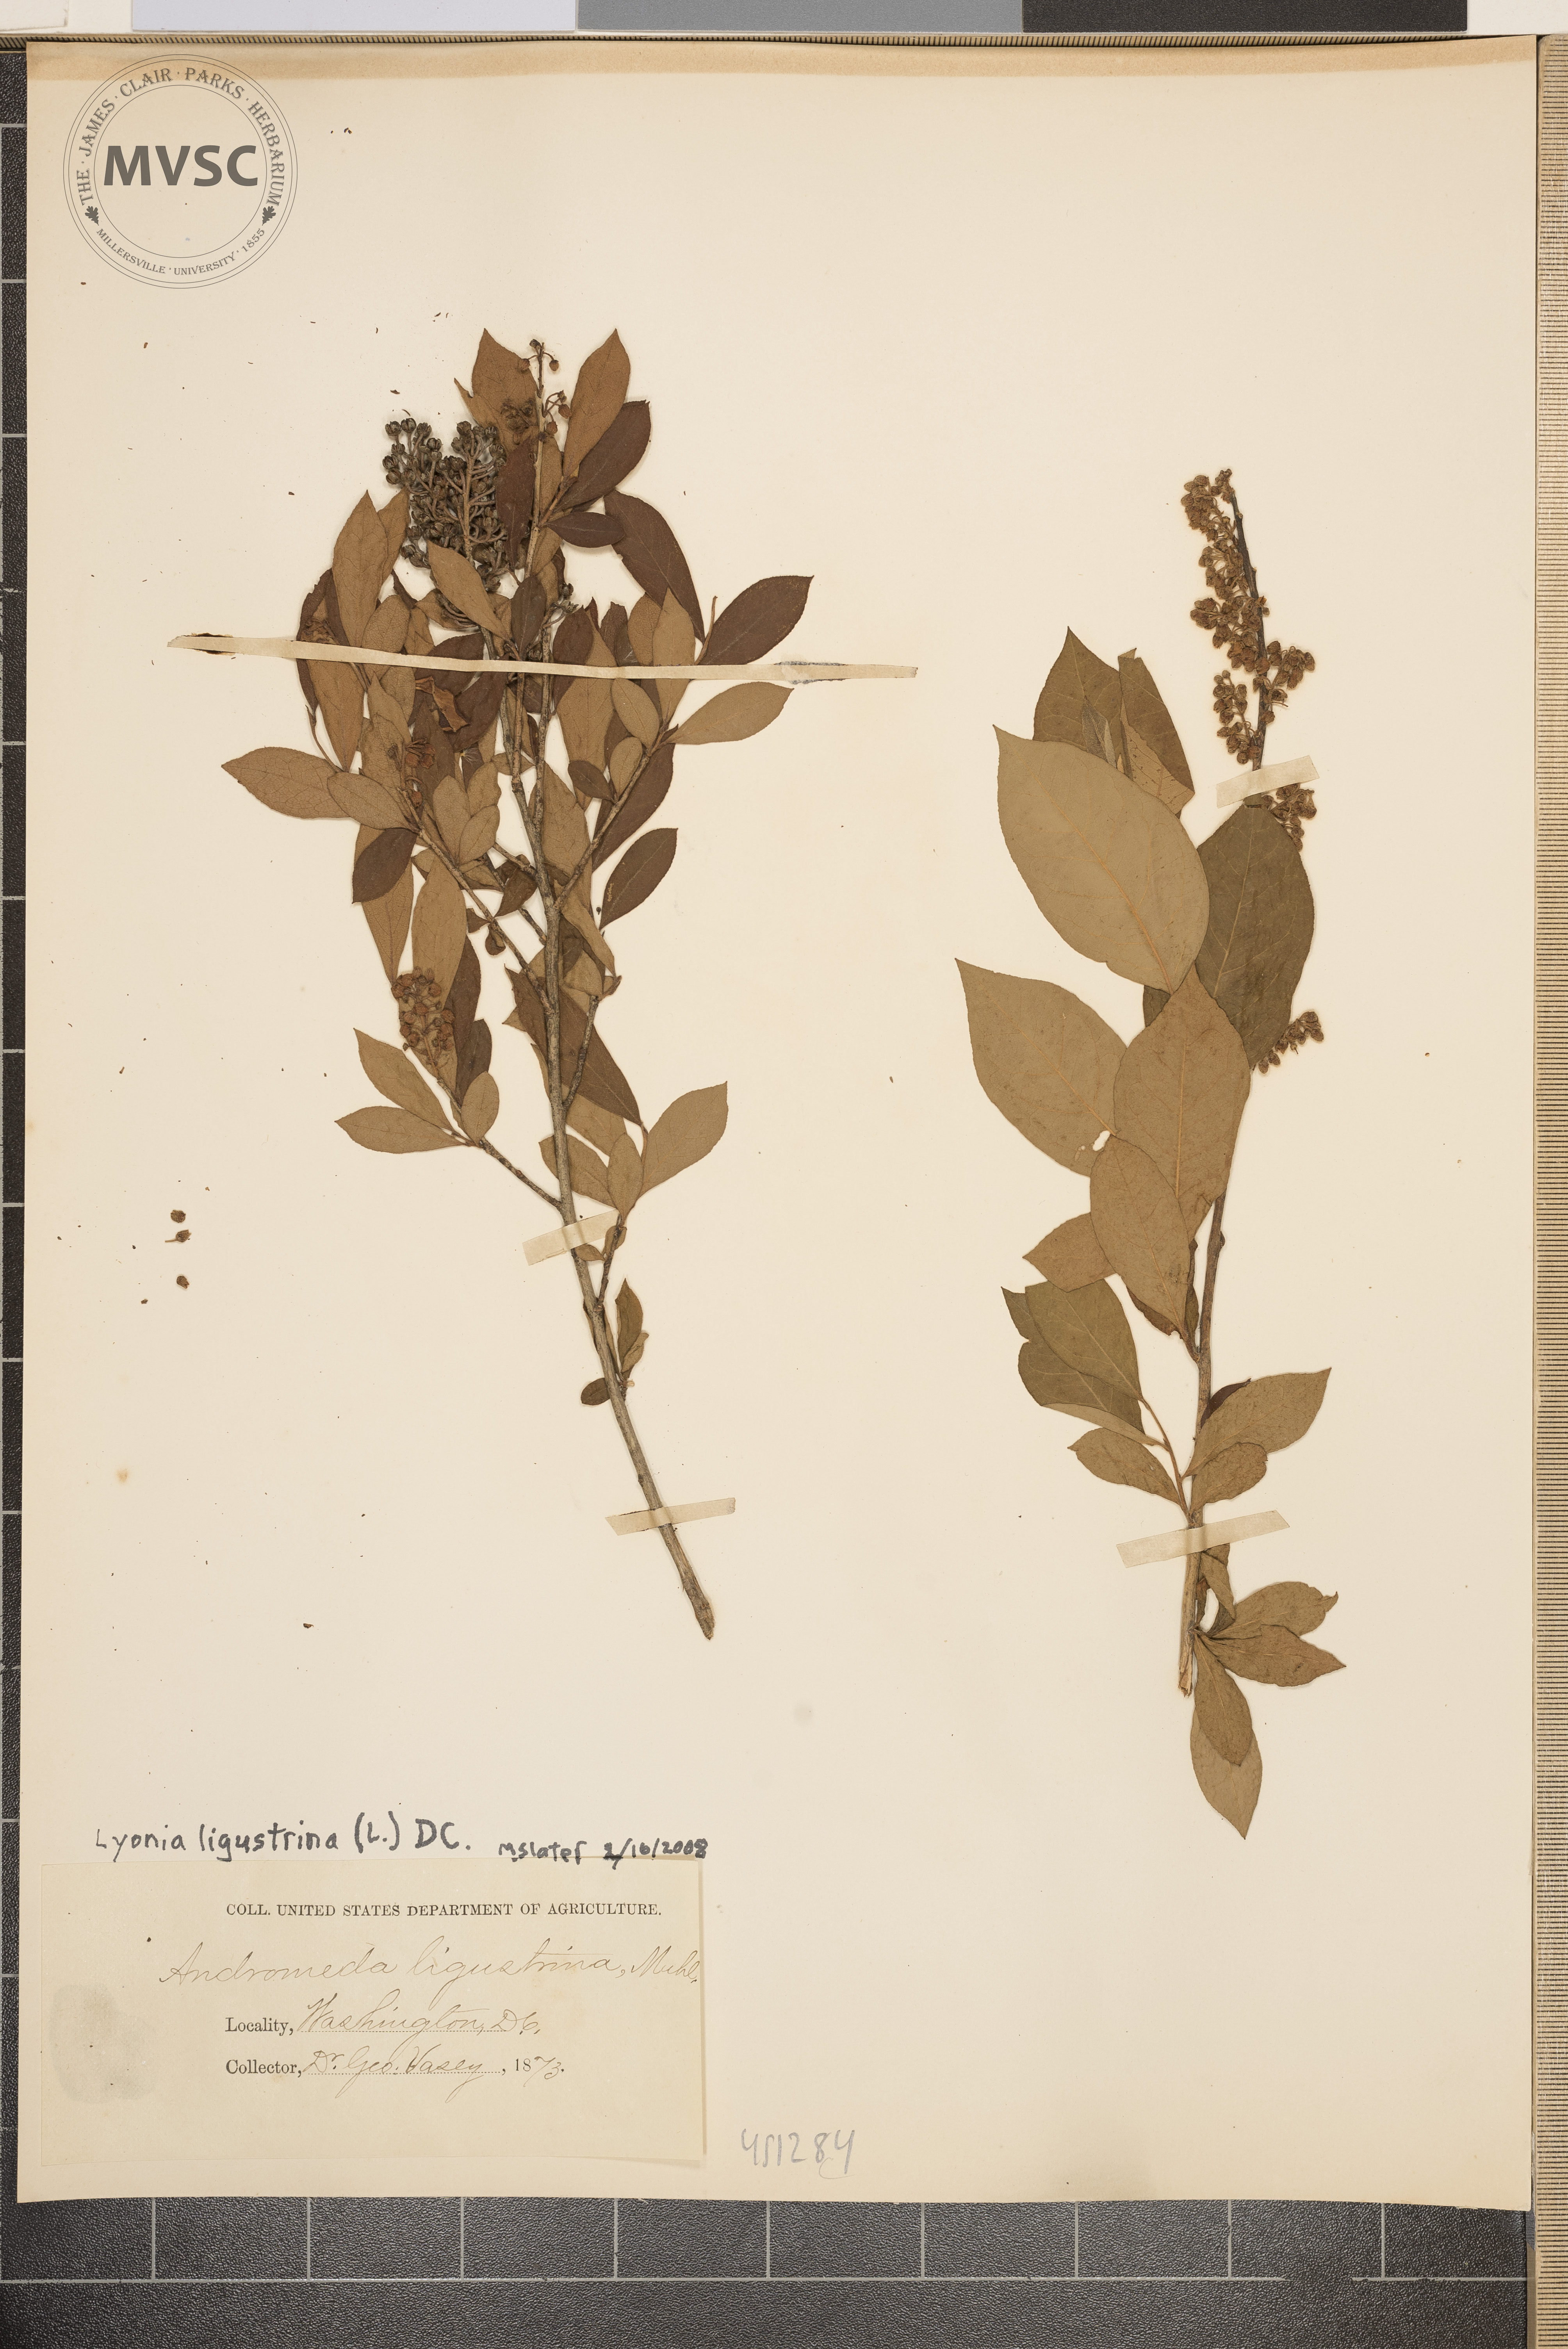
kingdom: Plantae
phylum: Tracheophyta
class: Magnoliopsida
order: Ericales
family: Ericaceae
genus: Lyonia
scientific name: Lyonia ligustrina
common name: Maleberry
